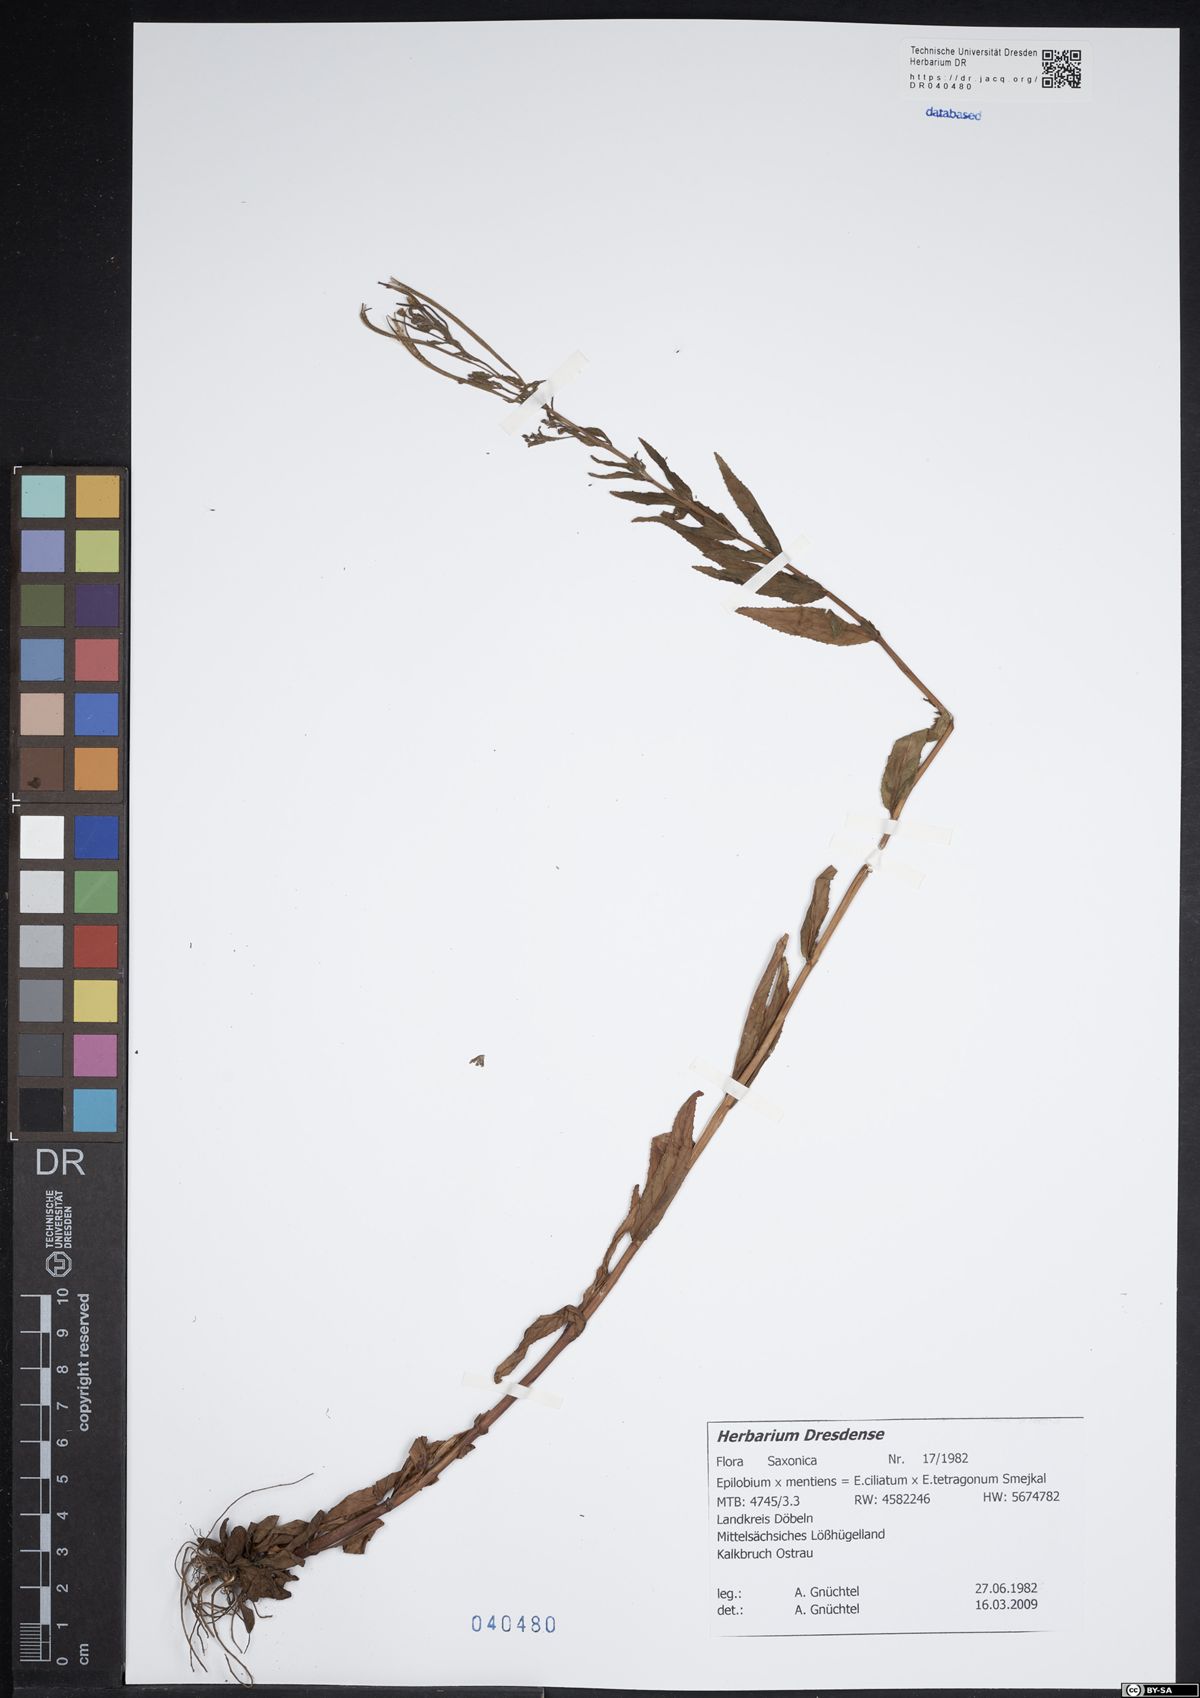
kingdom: Plantae
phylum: Tracheophyta
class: Magnoliopsida
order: Myrtales
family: Onagraceae
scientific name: Onagraceae
